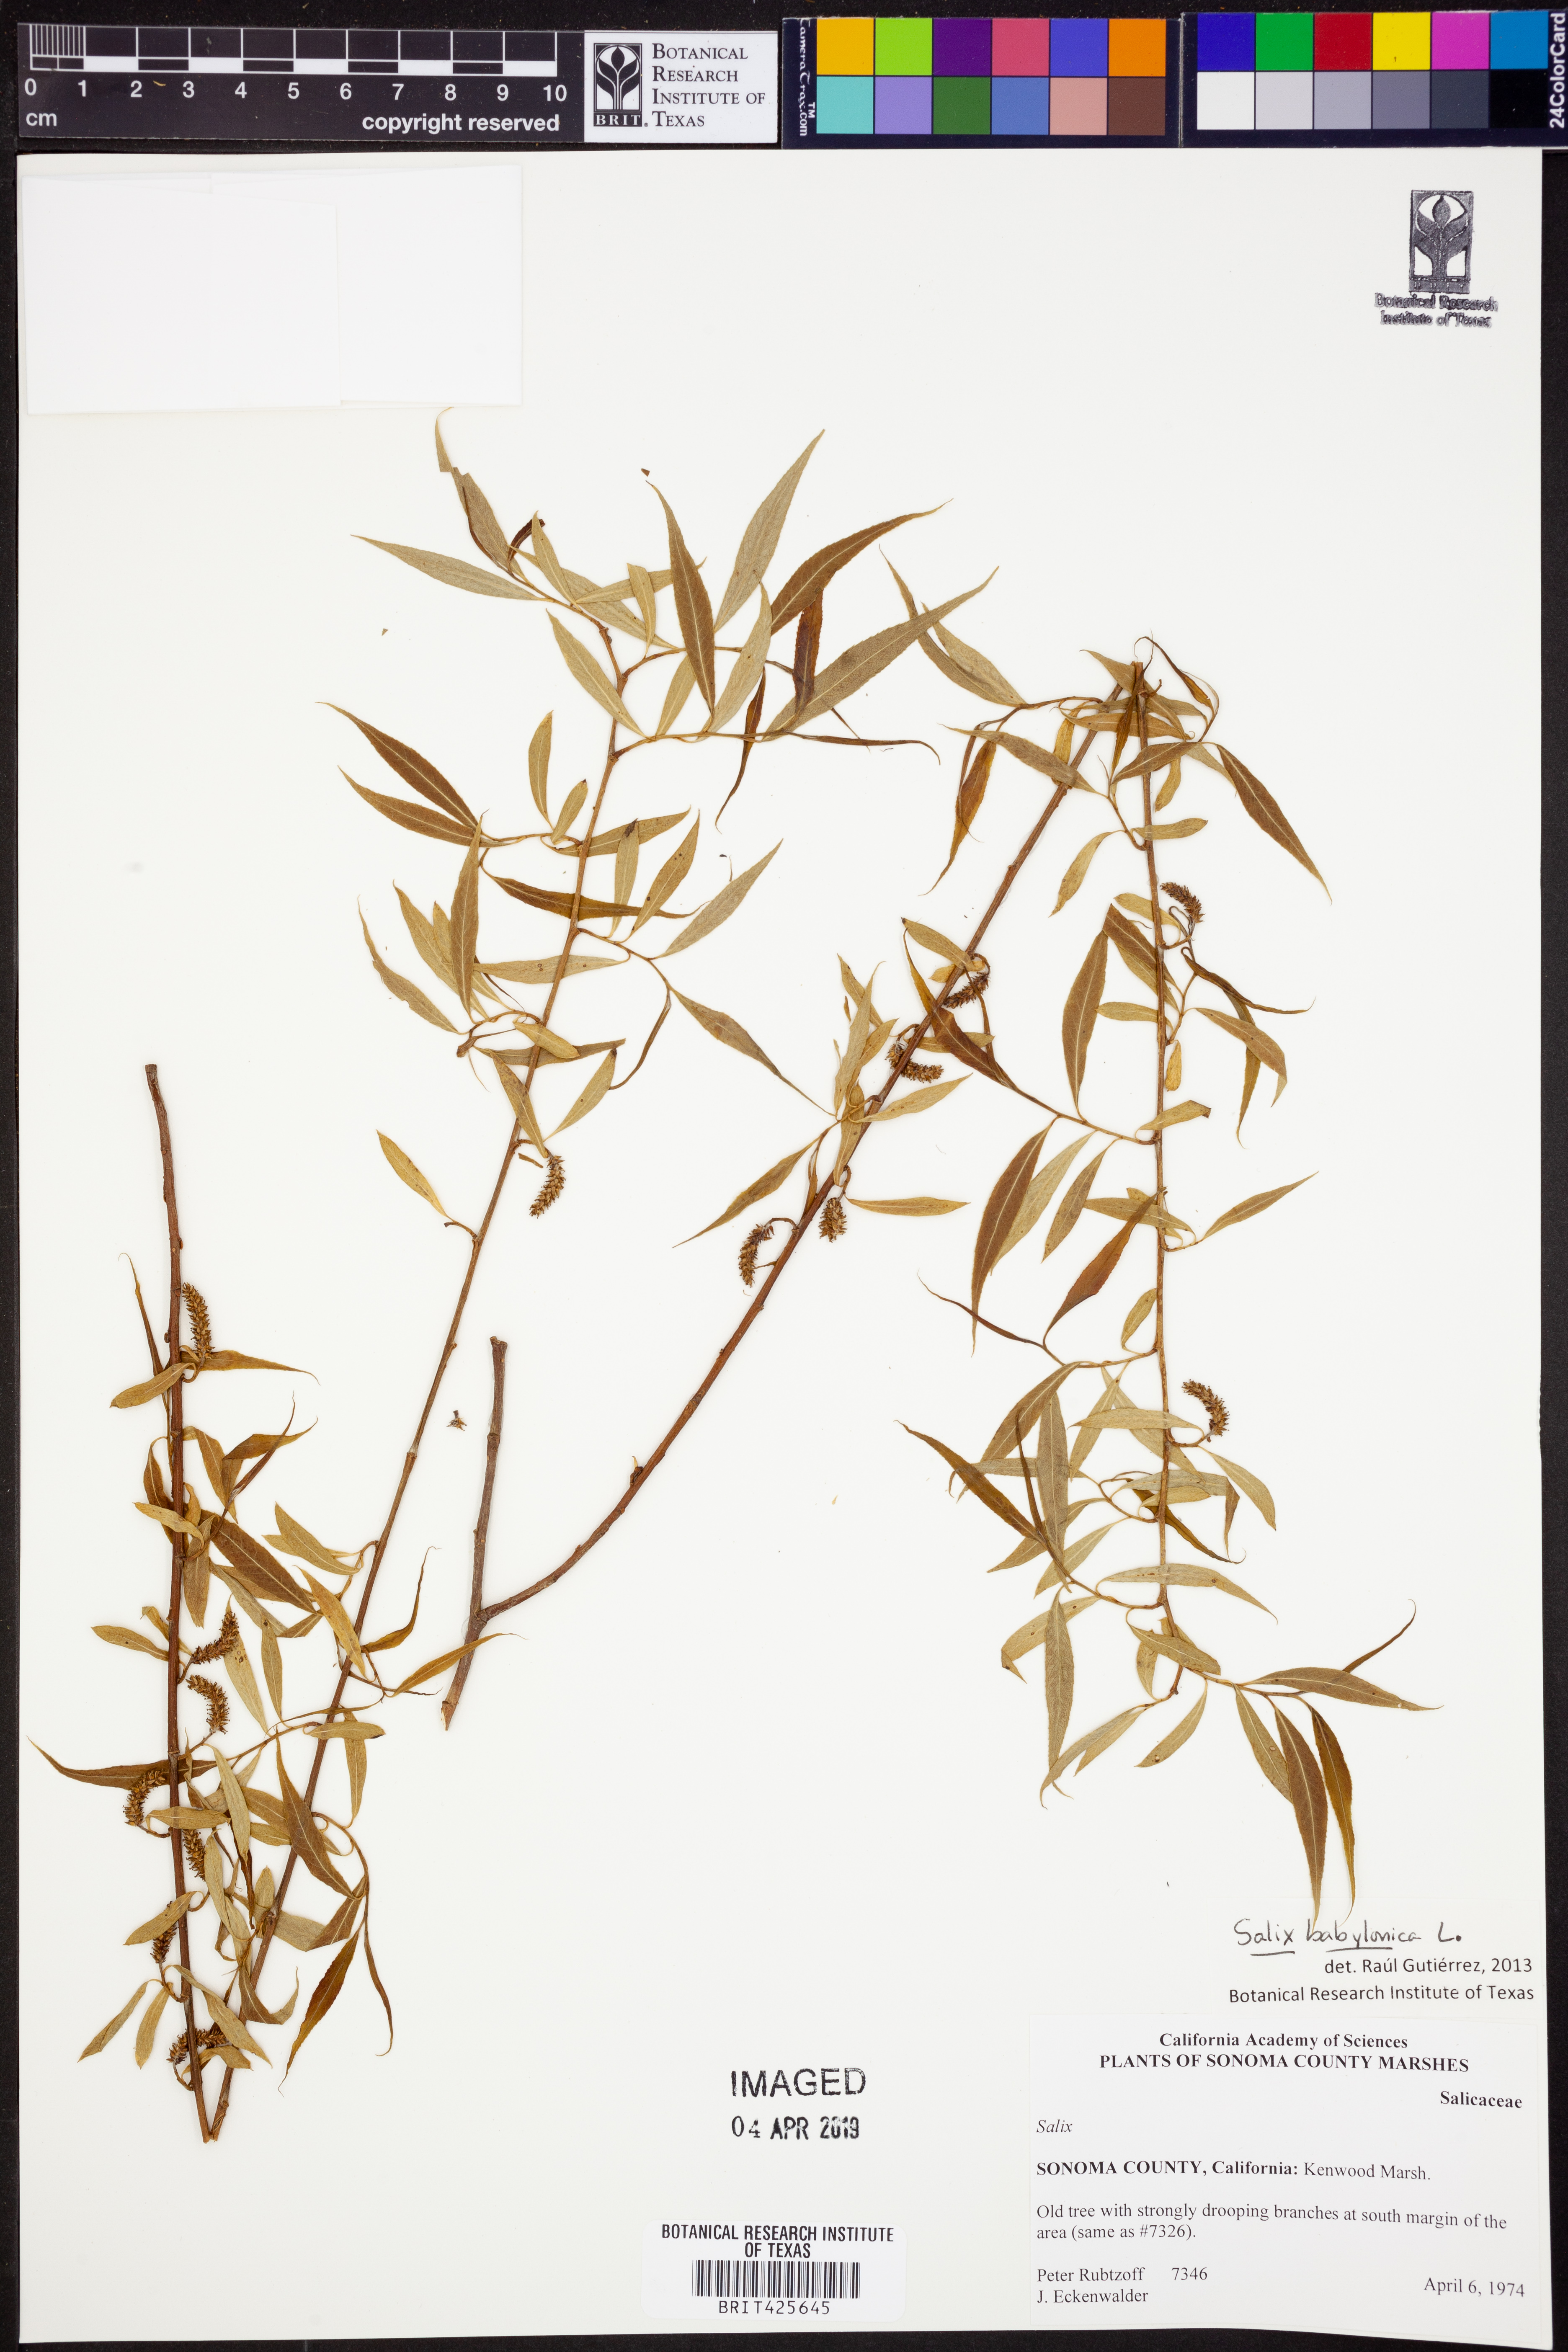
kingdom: Plantae
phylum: Tracheophyta
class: Magnoliopsida
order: Malpighiales
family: Salicaceae
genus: Salix
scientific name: Salix babylonica
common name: Weeping willow
